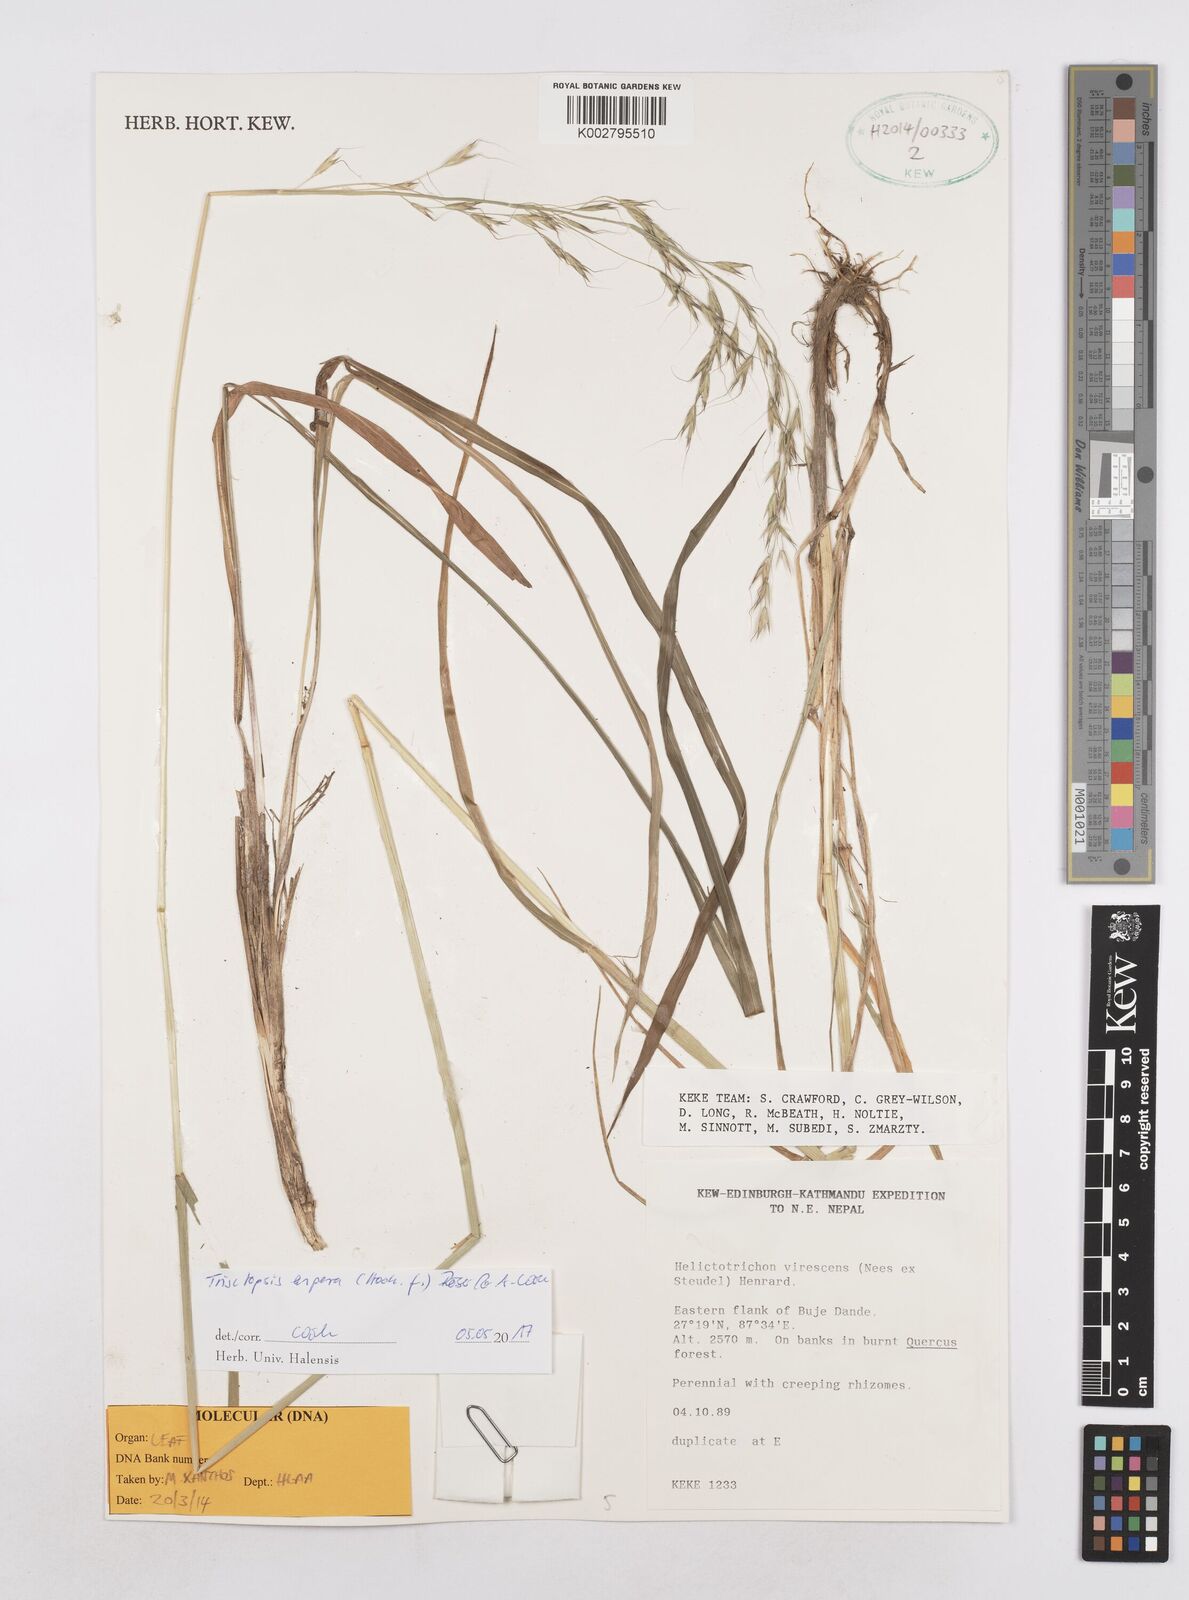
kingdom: Plantae
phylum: Tracheophyta
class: Liliopsida
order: Poales
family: Poaceae
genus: Trisetopsis
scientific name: Trisetopsis junghuhnii
